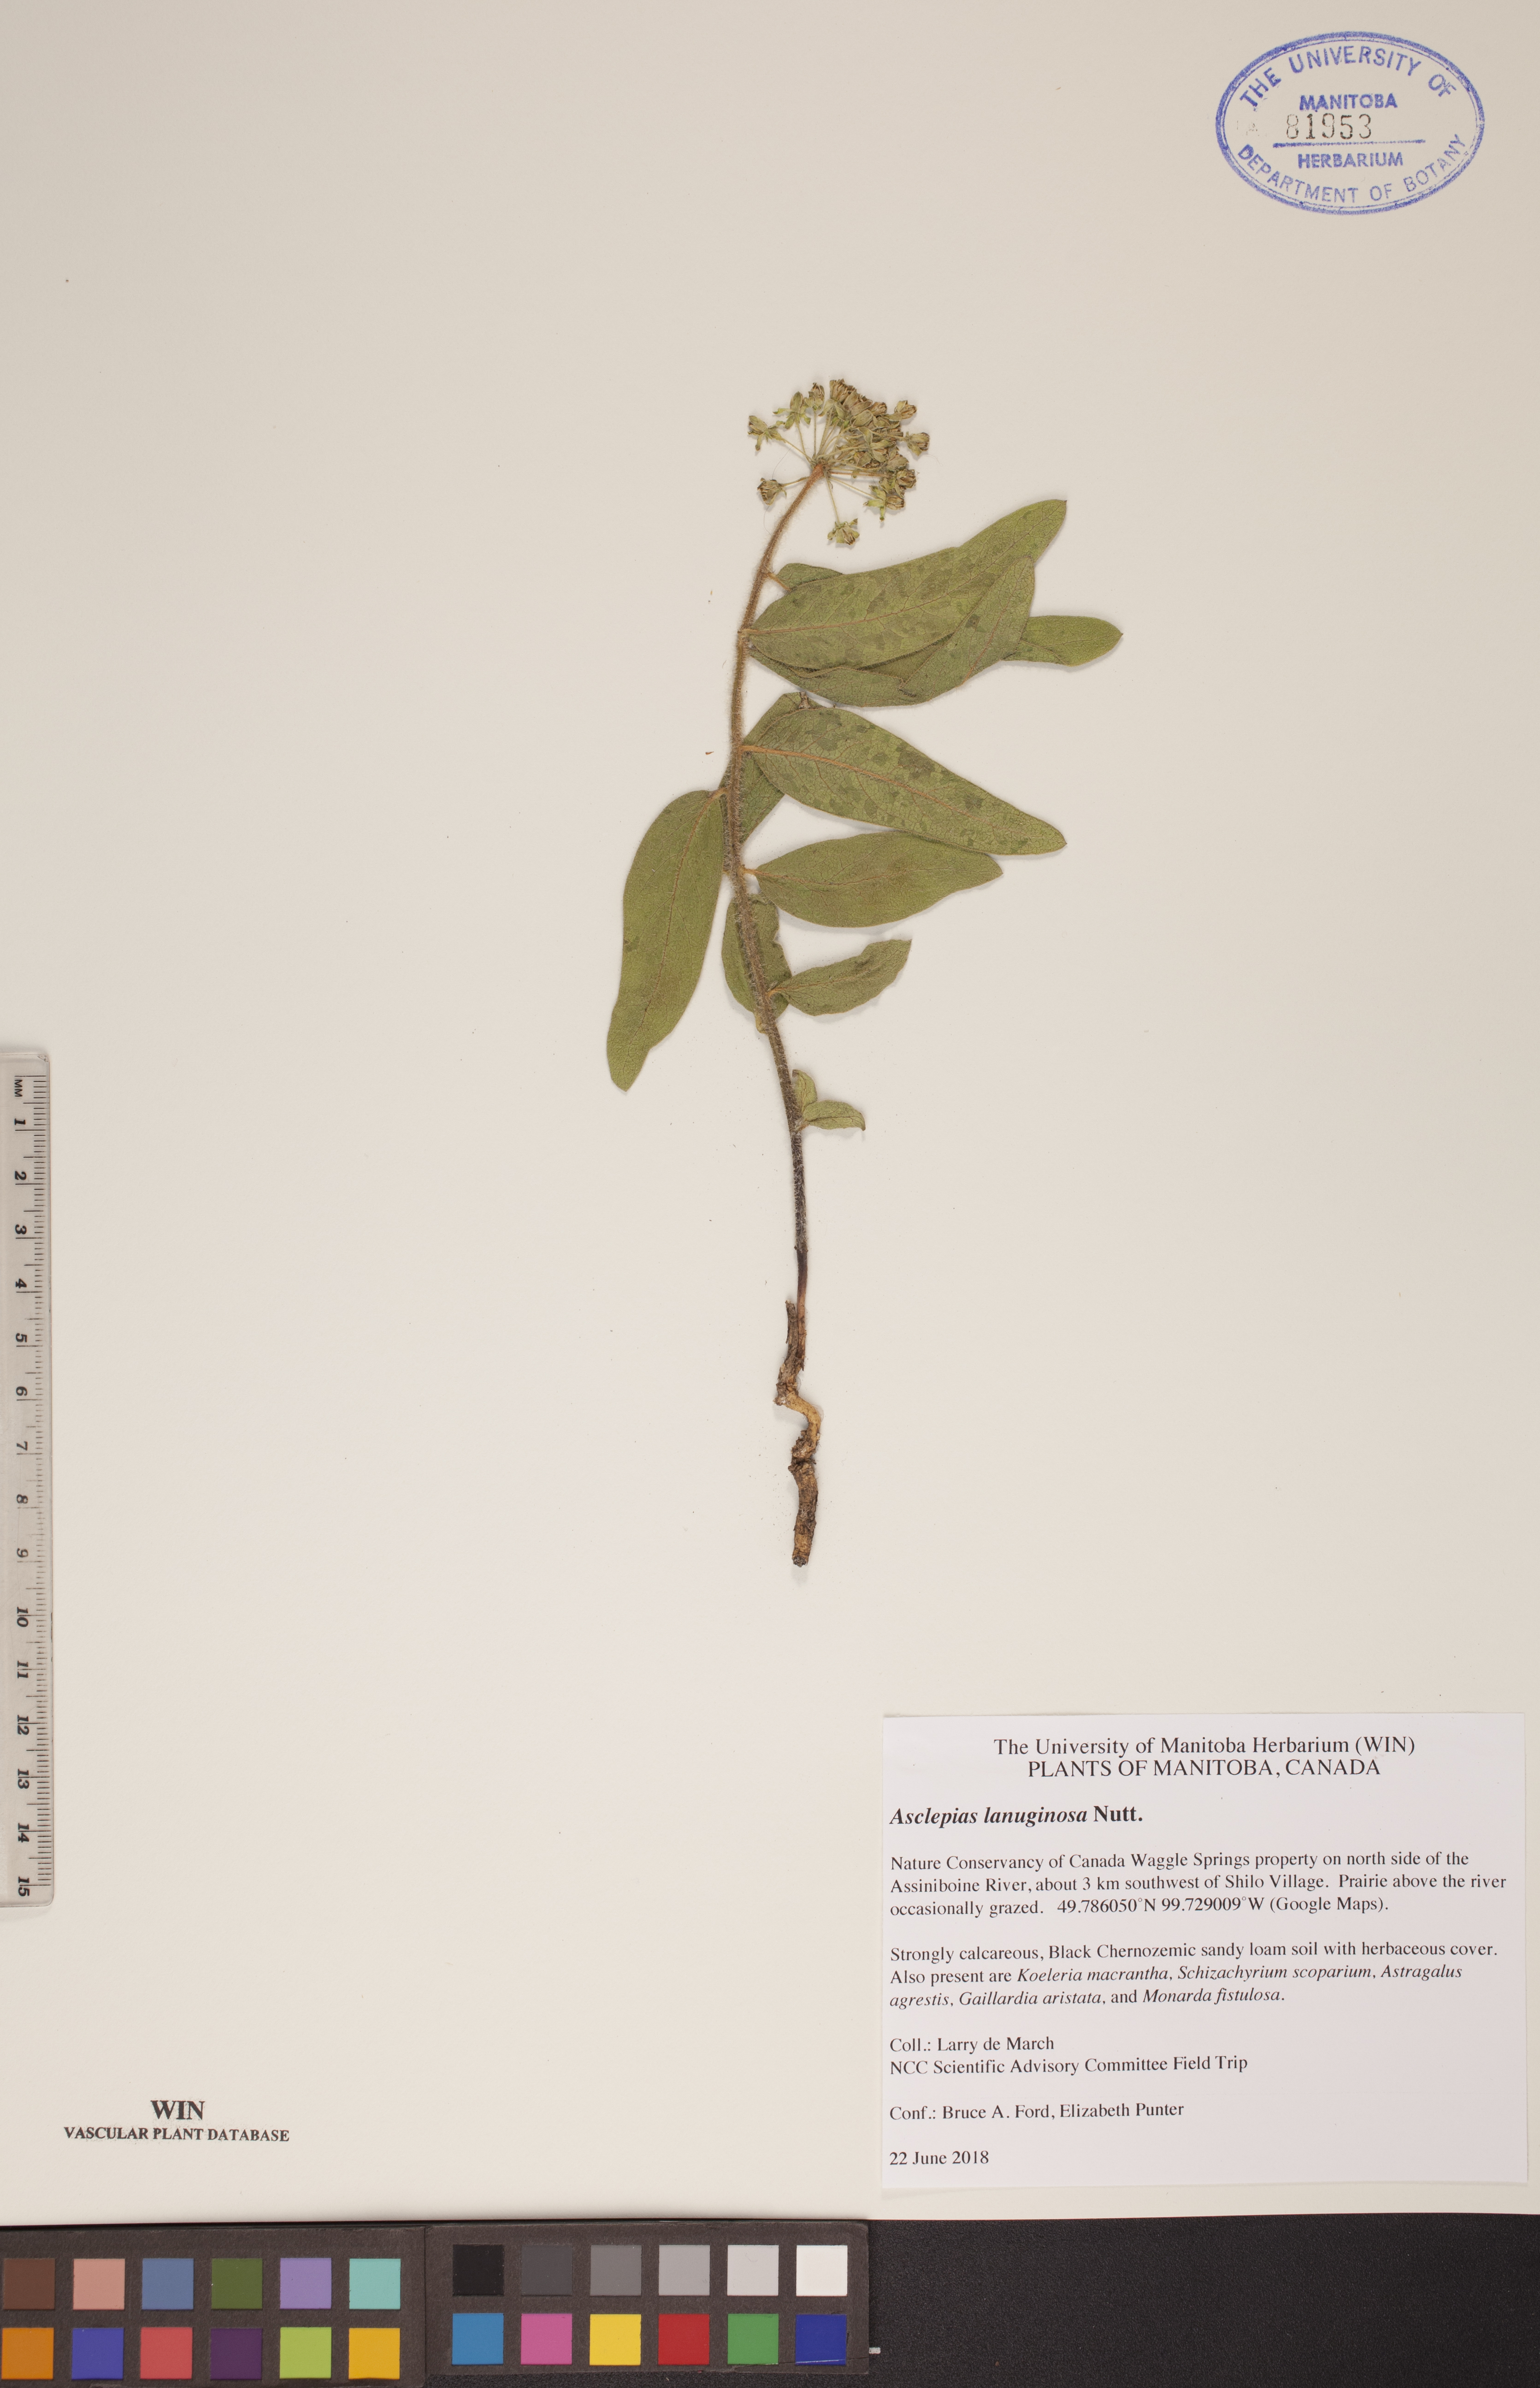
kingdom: Plantae
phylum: Tracheophyta
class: Magnoliopsida
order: Gentianales
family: Apocynaceae
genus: Asclepias
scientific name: Asclepias lanuginosa
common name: Side-cluster milkweed
